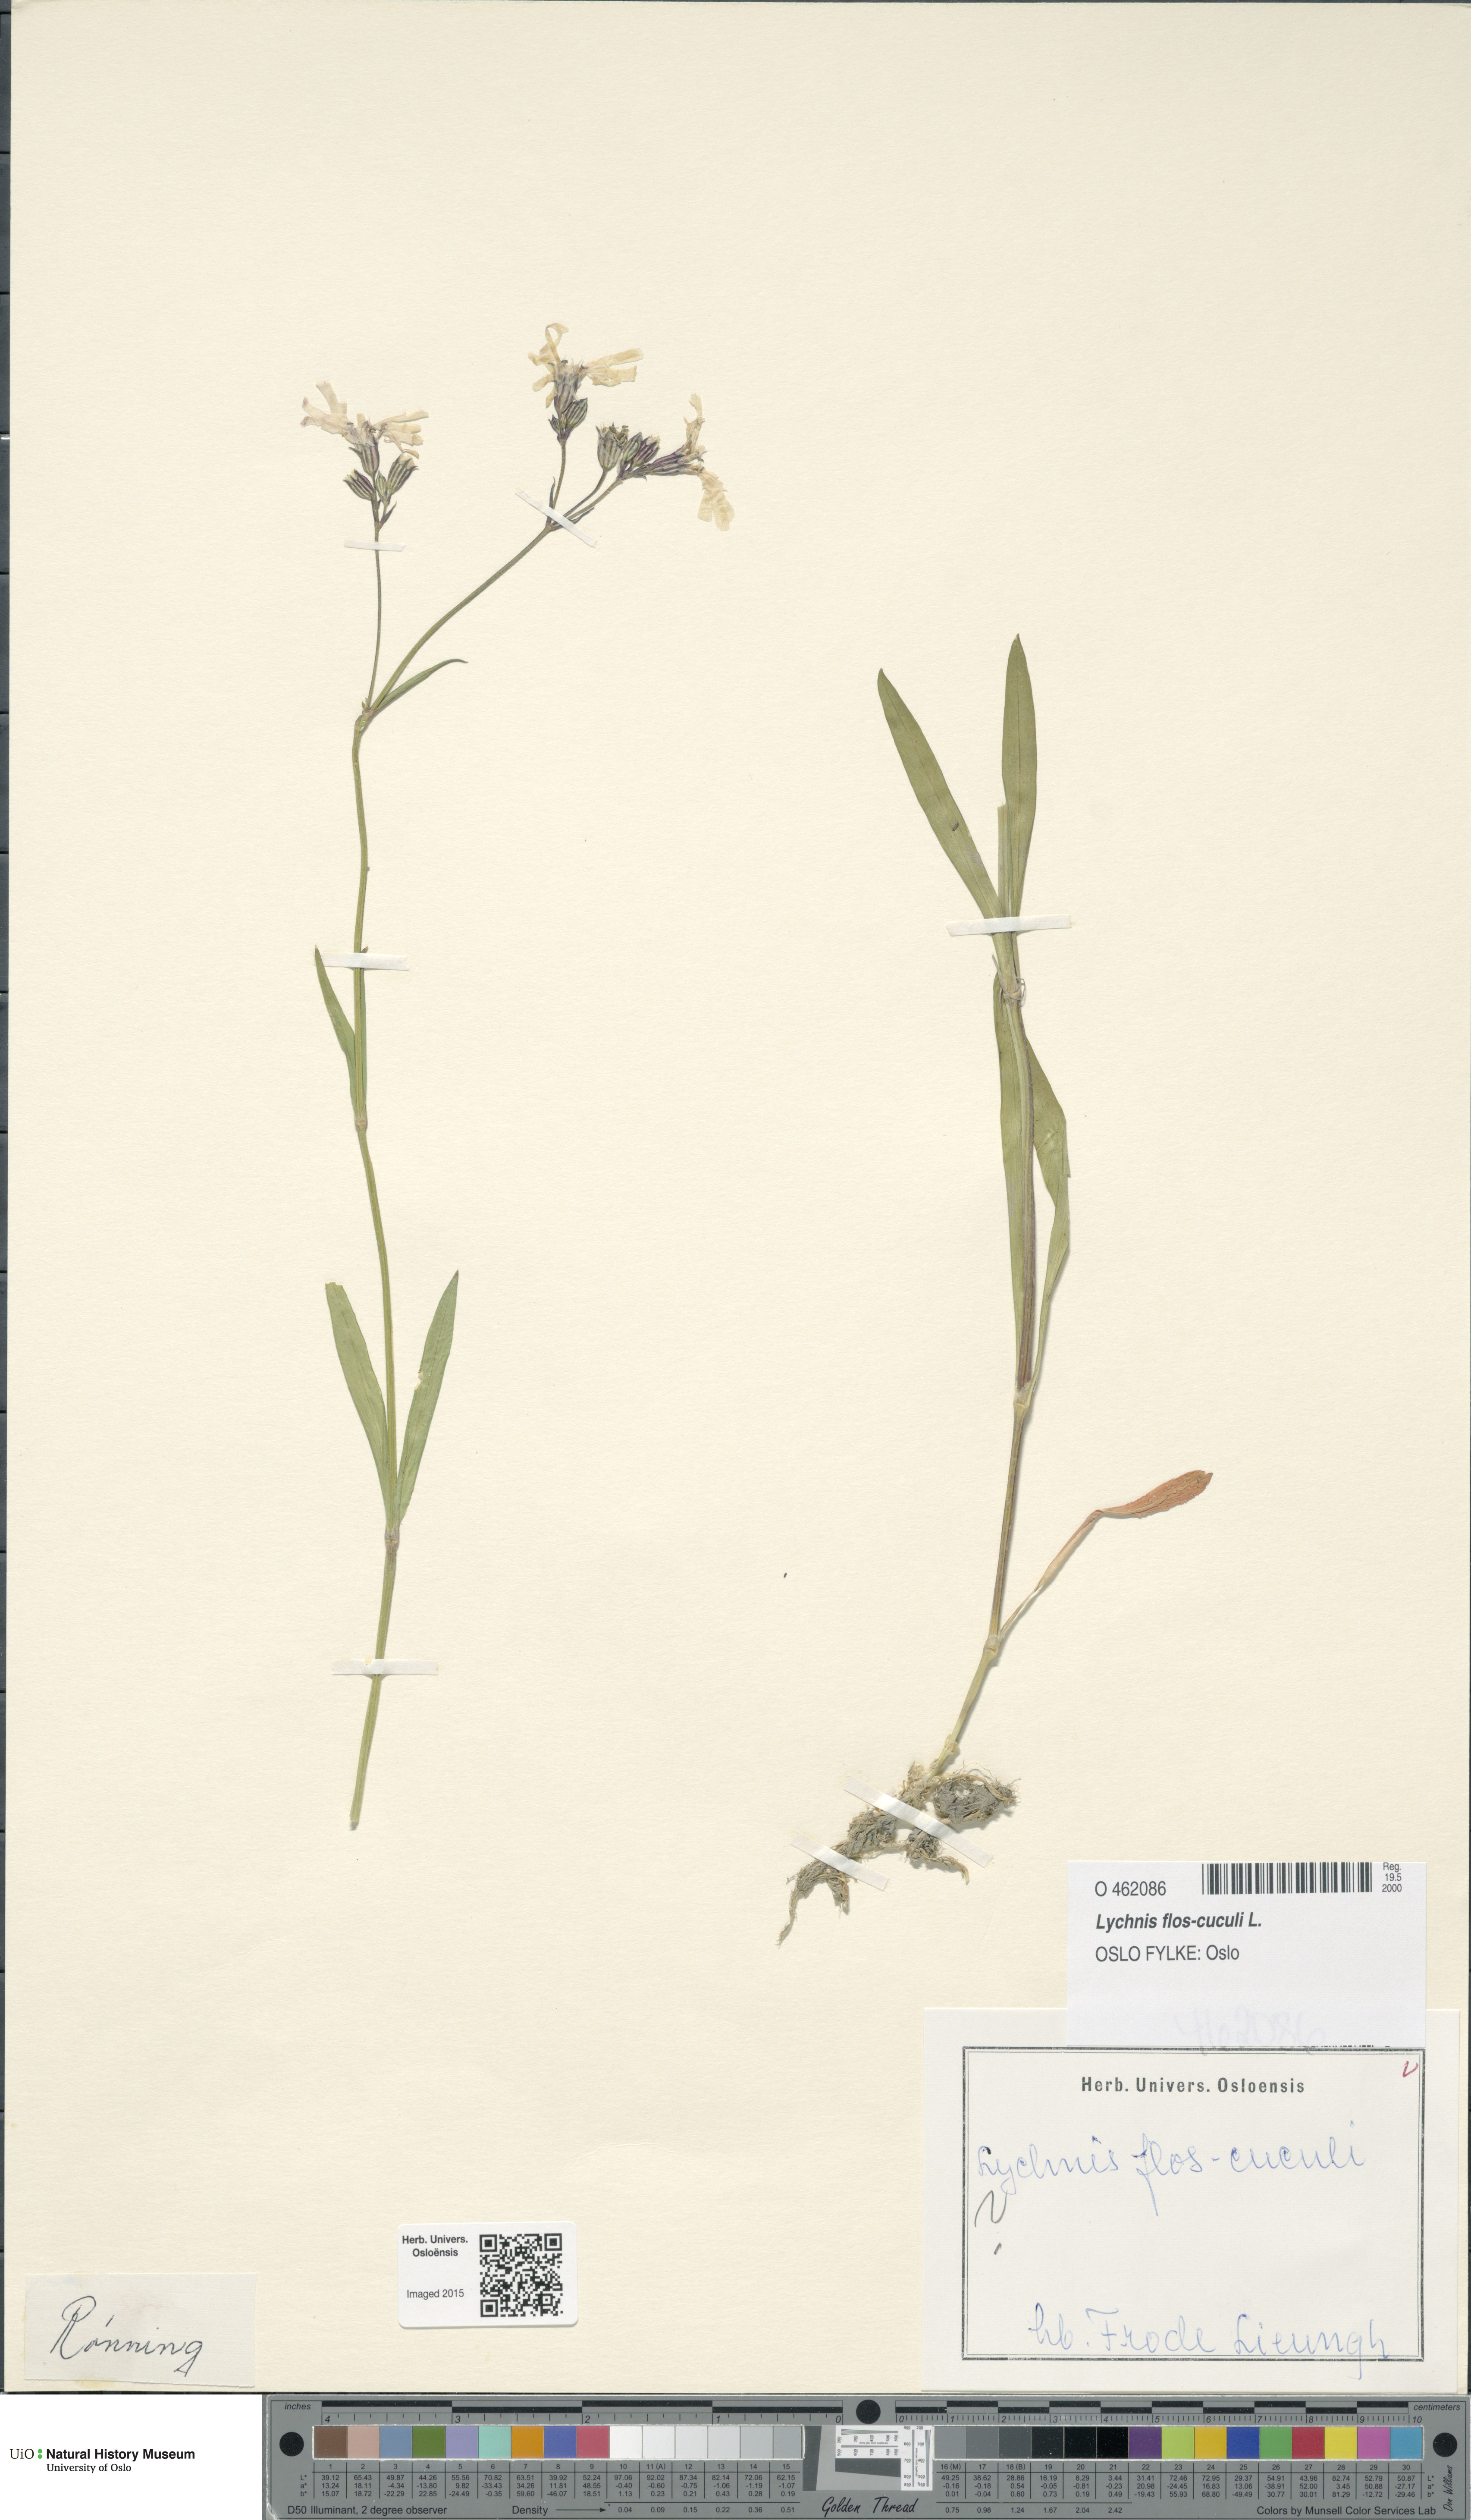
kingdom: Plantae
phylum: Tracheophyta
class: Magnoliopsida
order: Caryophyllales
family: Caryophyllaceae
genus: Silene
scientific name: Silene flos-cuculi
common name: Ragged-robin
